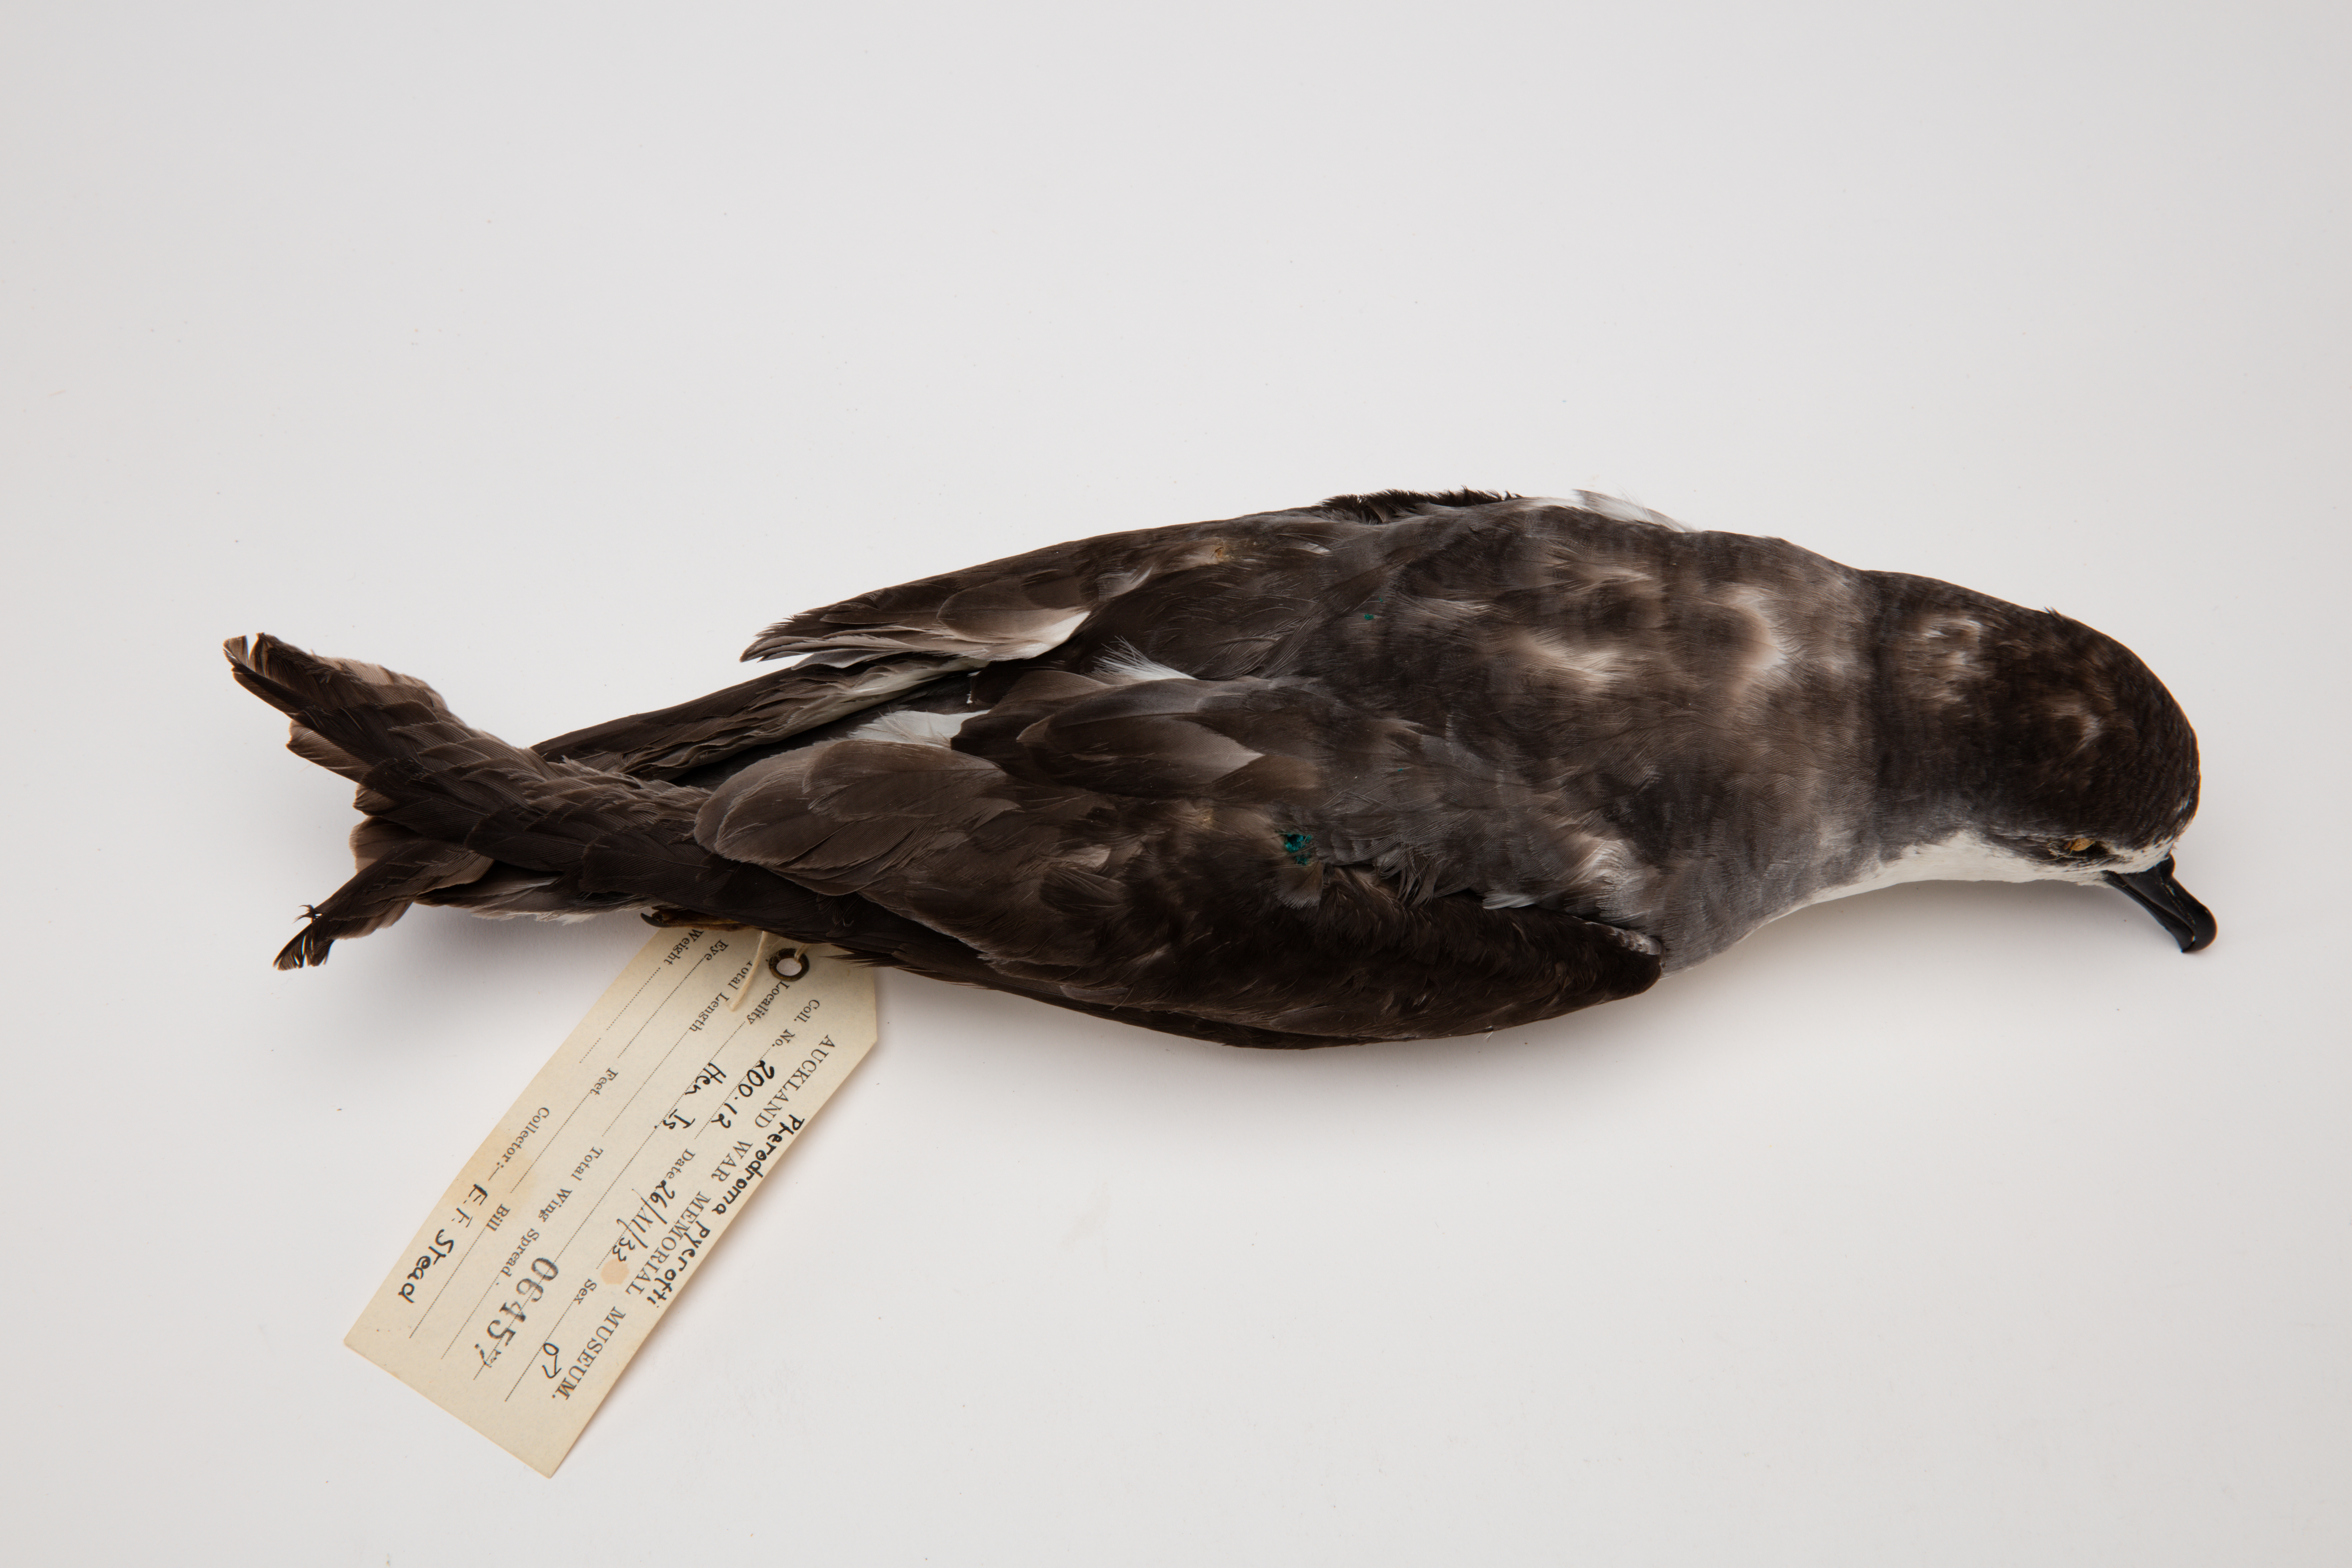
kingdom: Animalia
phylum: Chordata
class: Aves
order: Procellariiformes
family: Procellariidae
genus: Pterodroma
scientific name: Pterodroma pycrofti
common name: Pycroft's petrel
